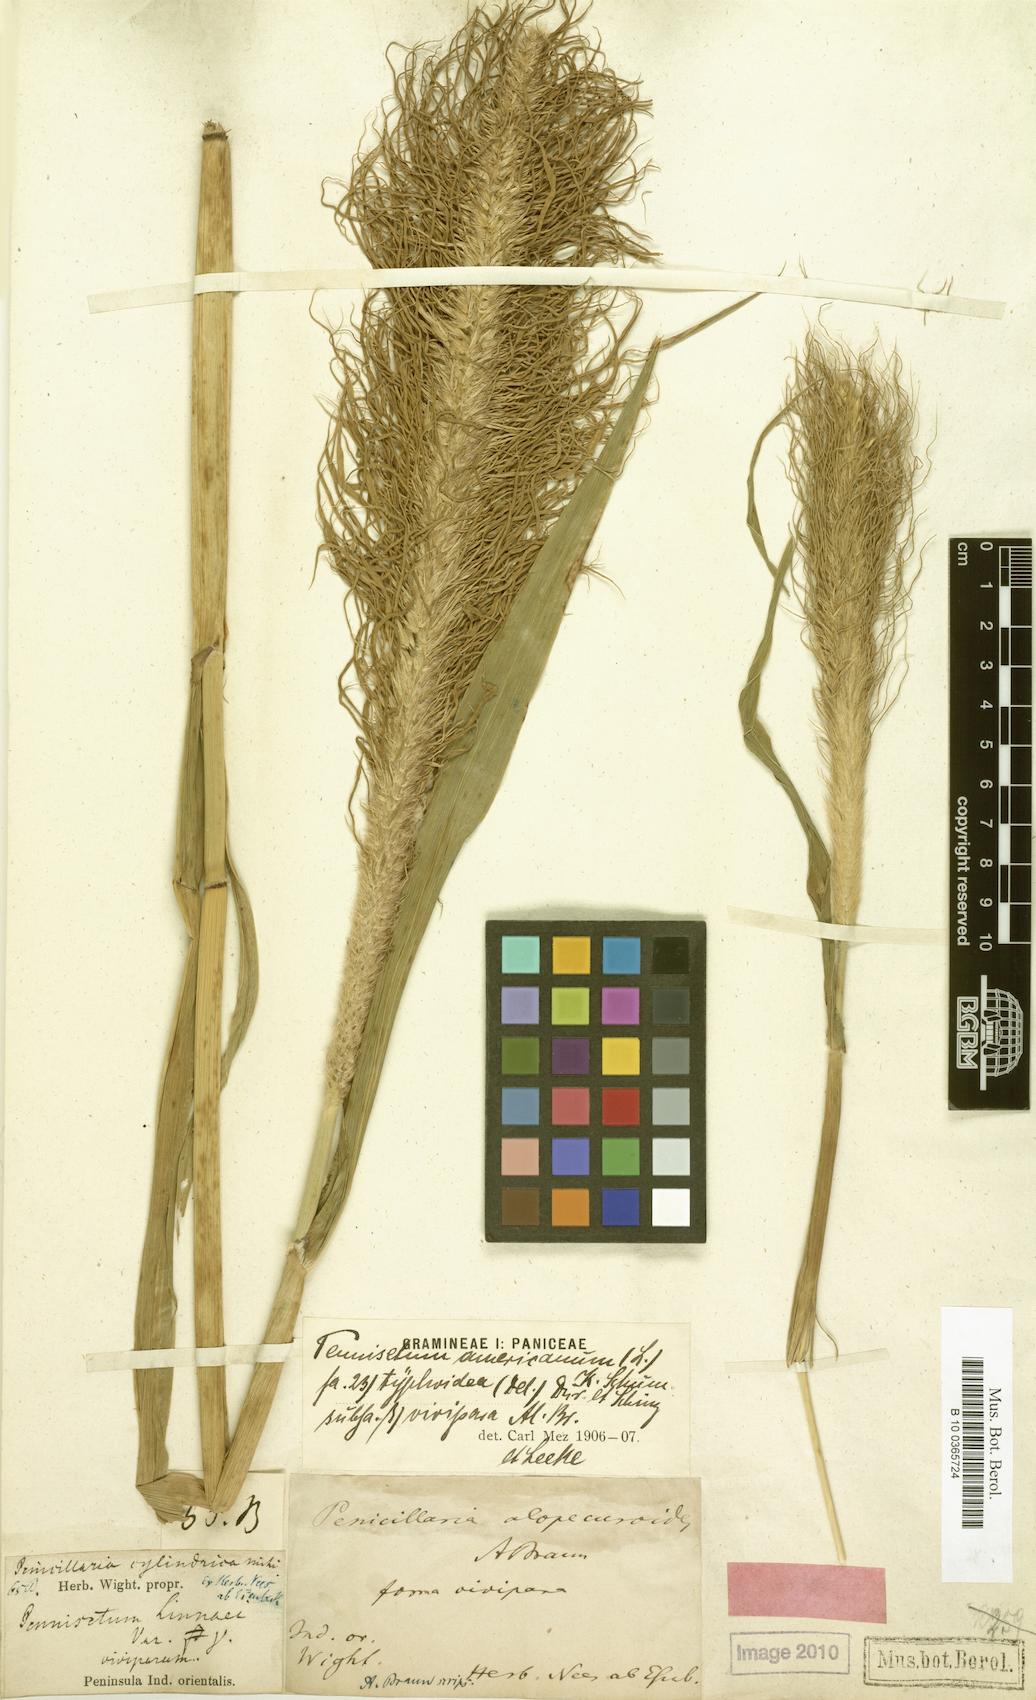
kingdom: Plantae
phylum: Tracheophyta
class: Liliopsida
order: Poales
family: Poaceae
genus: Cenchrus
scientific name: Cenchrus americanus
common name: Pearl millet
